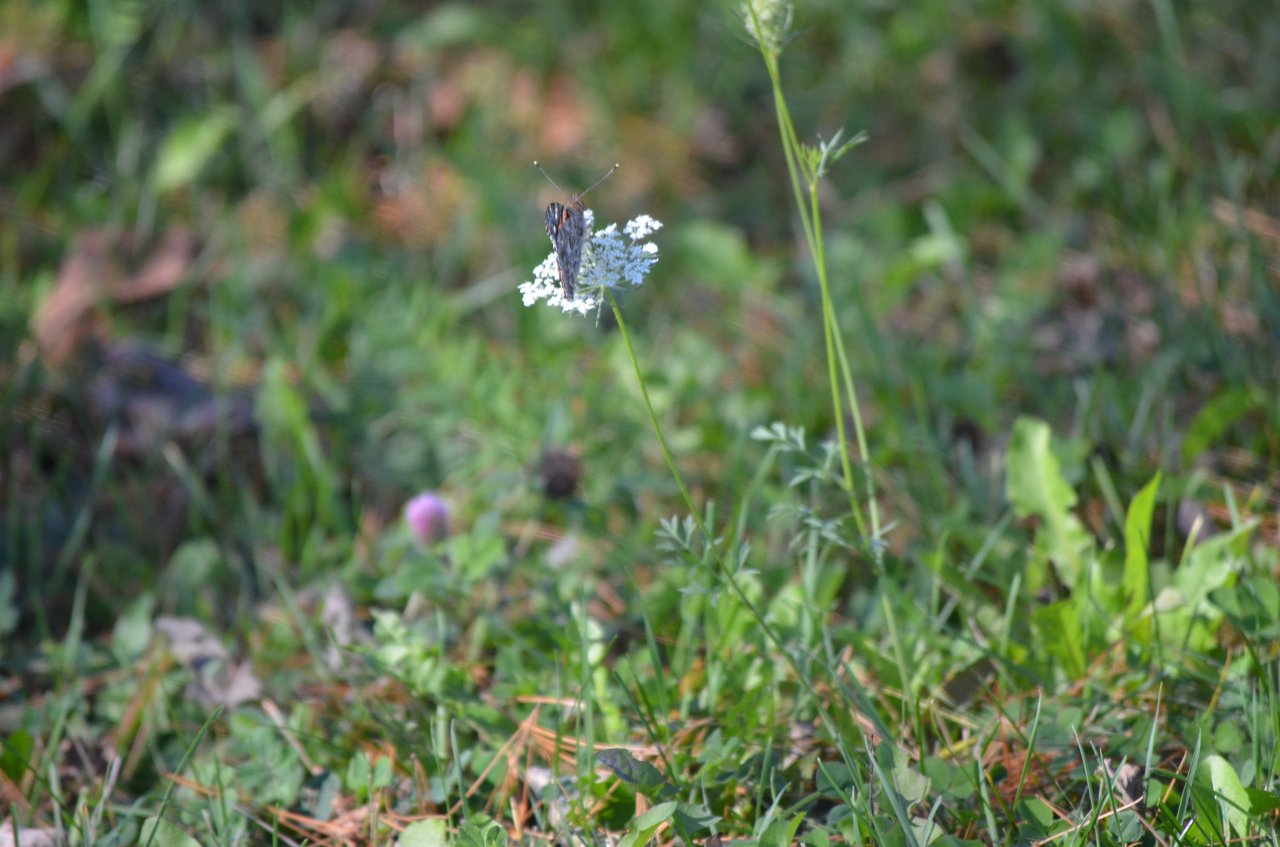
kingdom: Animalia
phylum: Arthropoda
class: Insecta
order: Lepidoptera
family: Nymphalidae
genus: Vanessa
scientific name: Vanessa cardui
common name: Painted Lady
